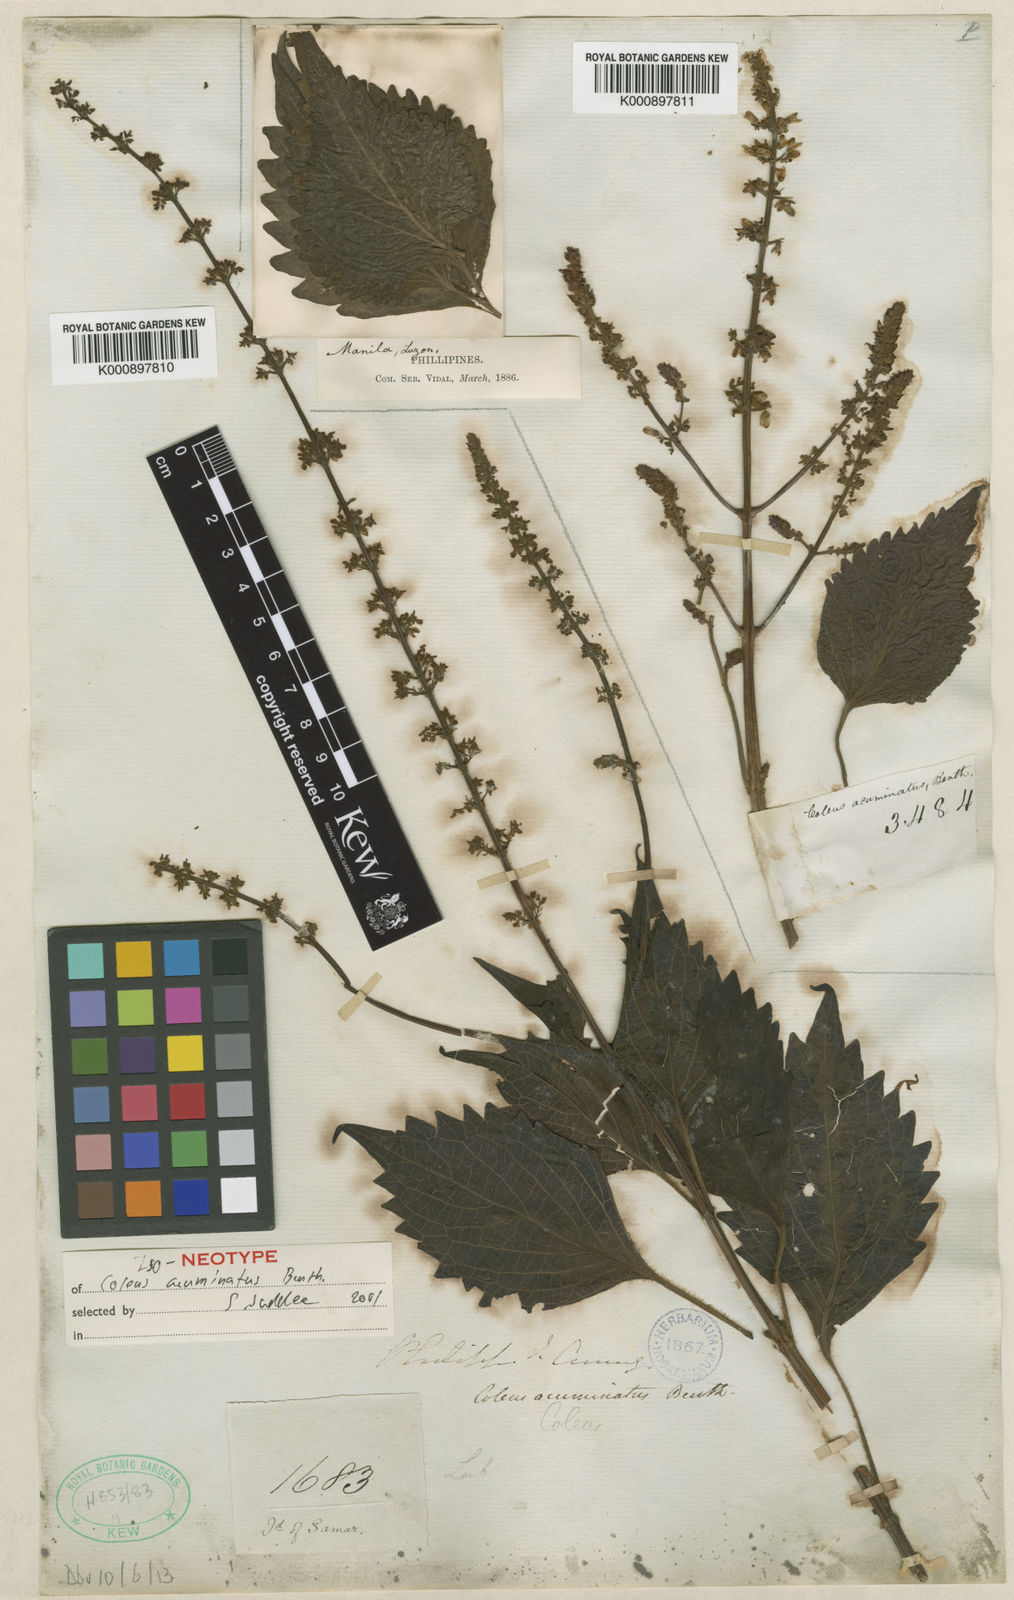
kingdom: Plantae
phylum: Tracheophyta
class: Magnoliopsida
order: Lamiales
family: Lamiaceae
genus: Coleus
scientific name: Coleus scutellarioides
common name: Coleus
